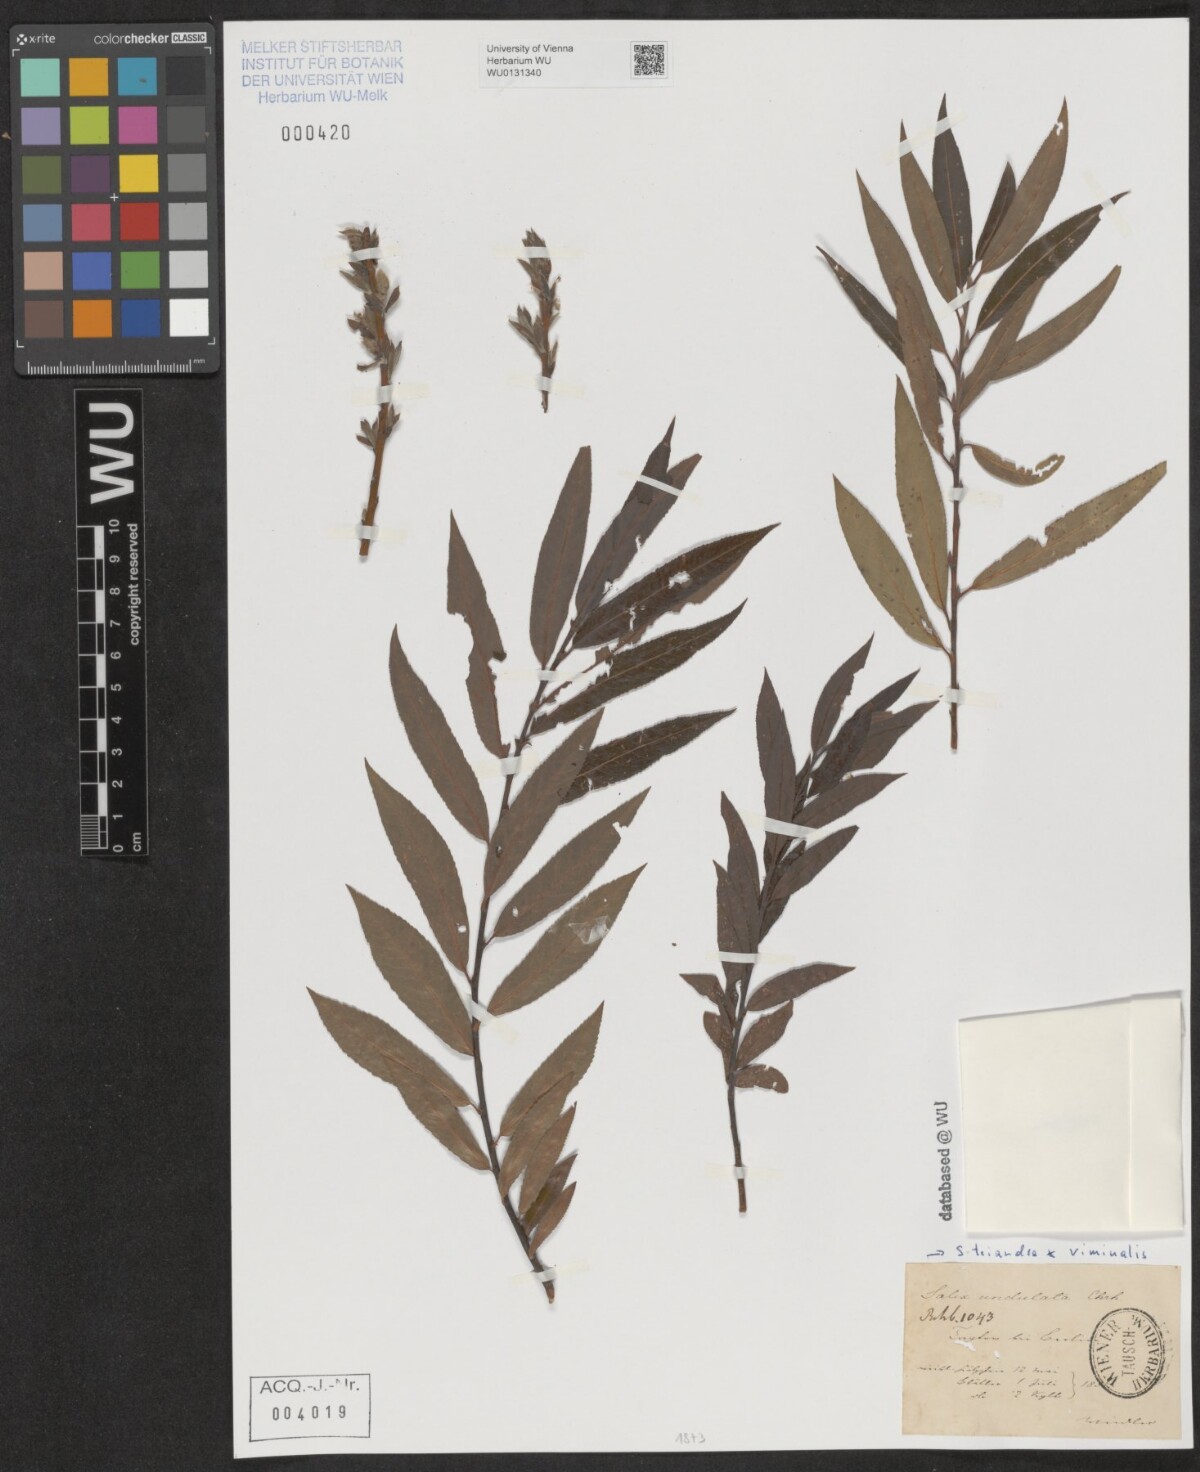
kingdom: Plantae
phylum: Tracheophyta
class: Magnoliopsida
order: Malpighiales
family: Salicaceae
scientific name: Salicaceae
